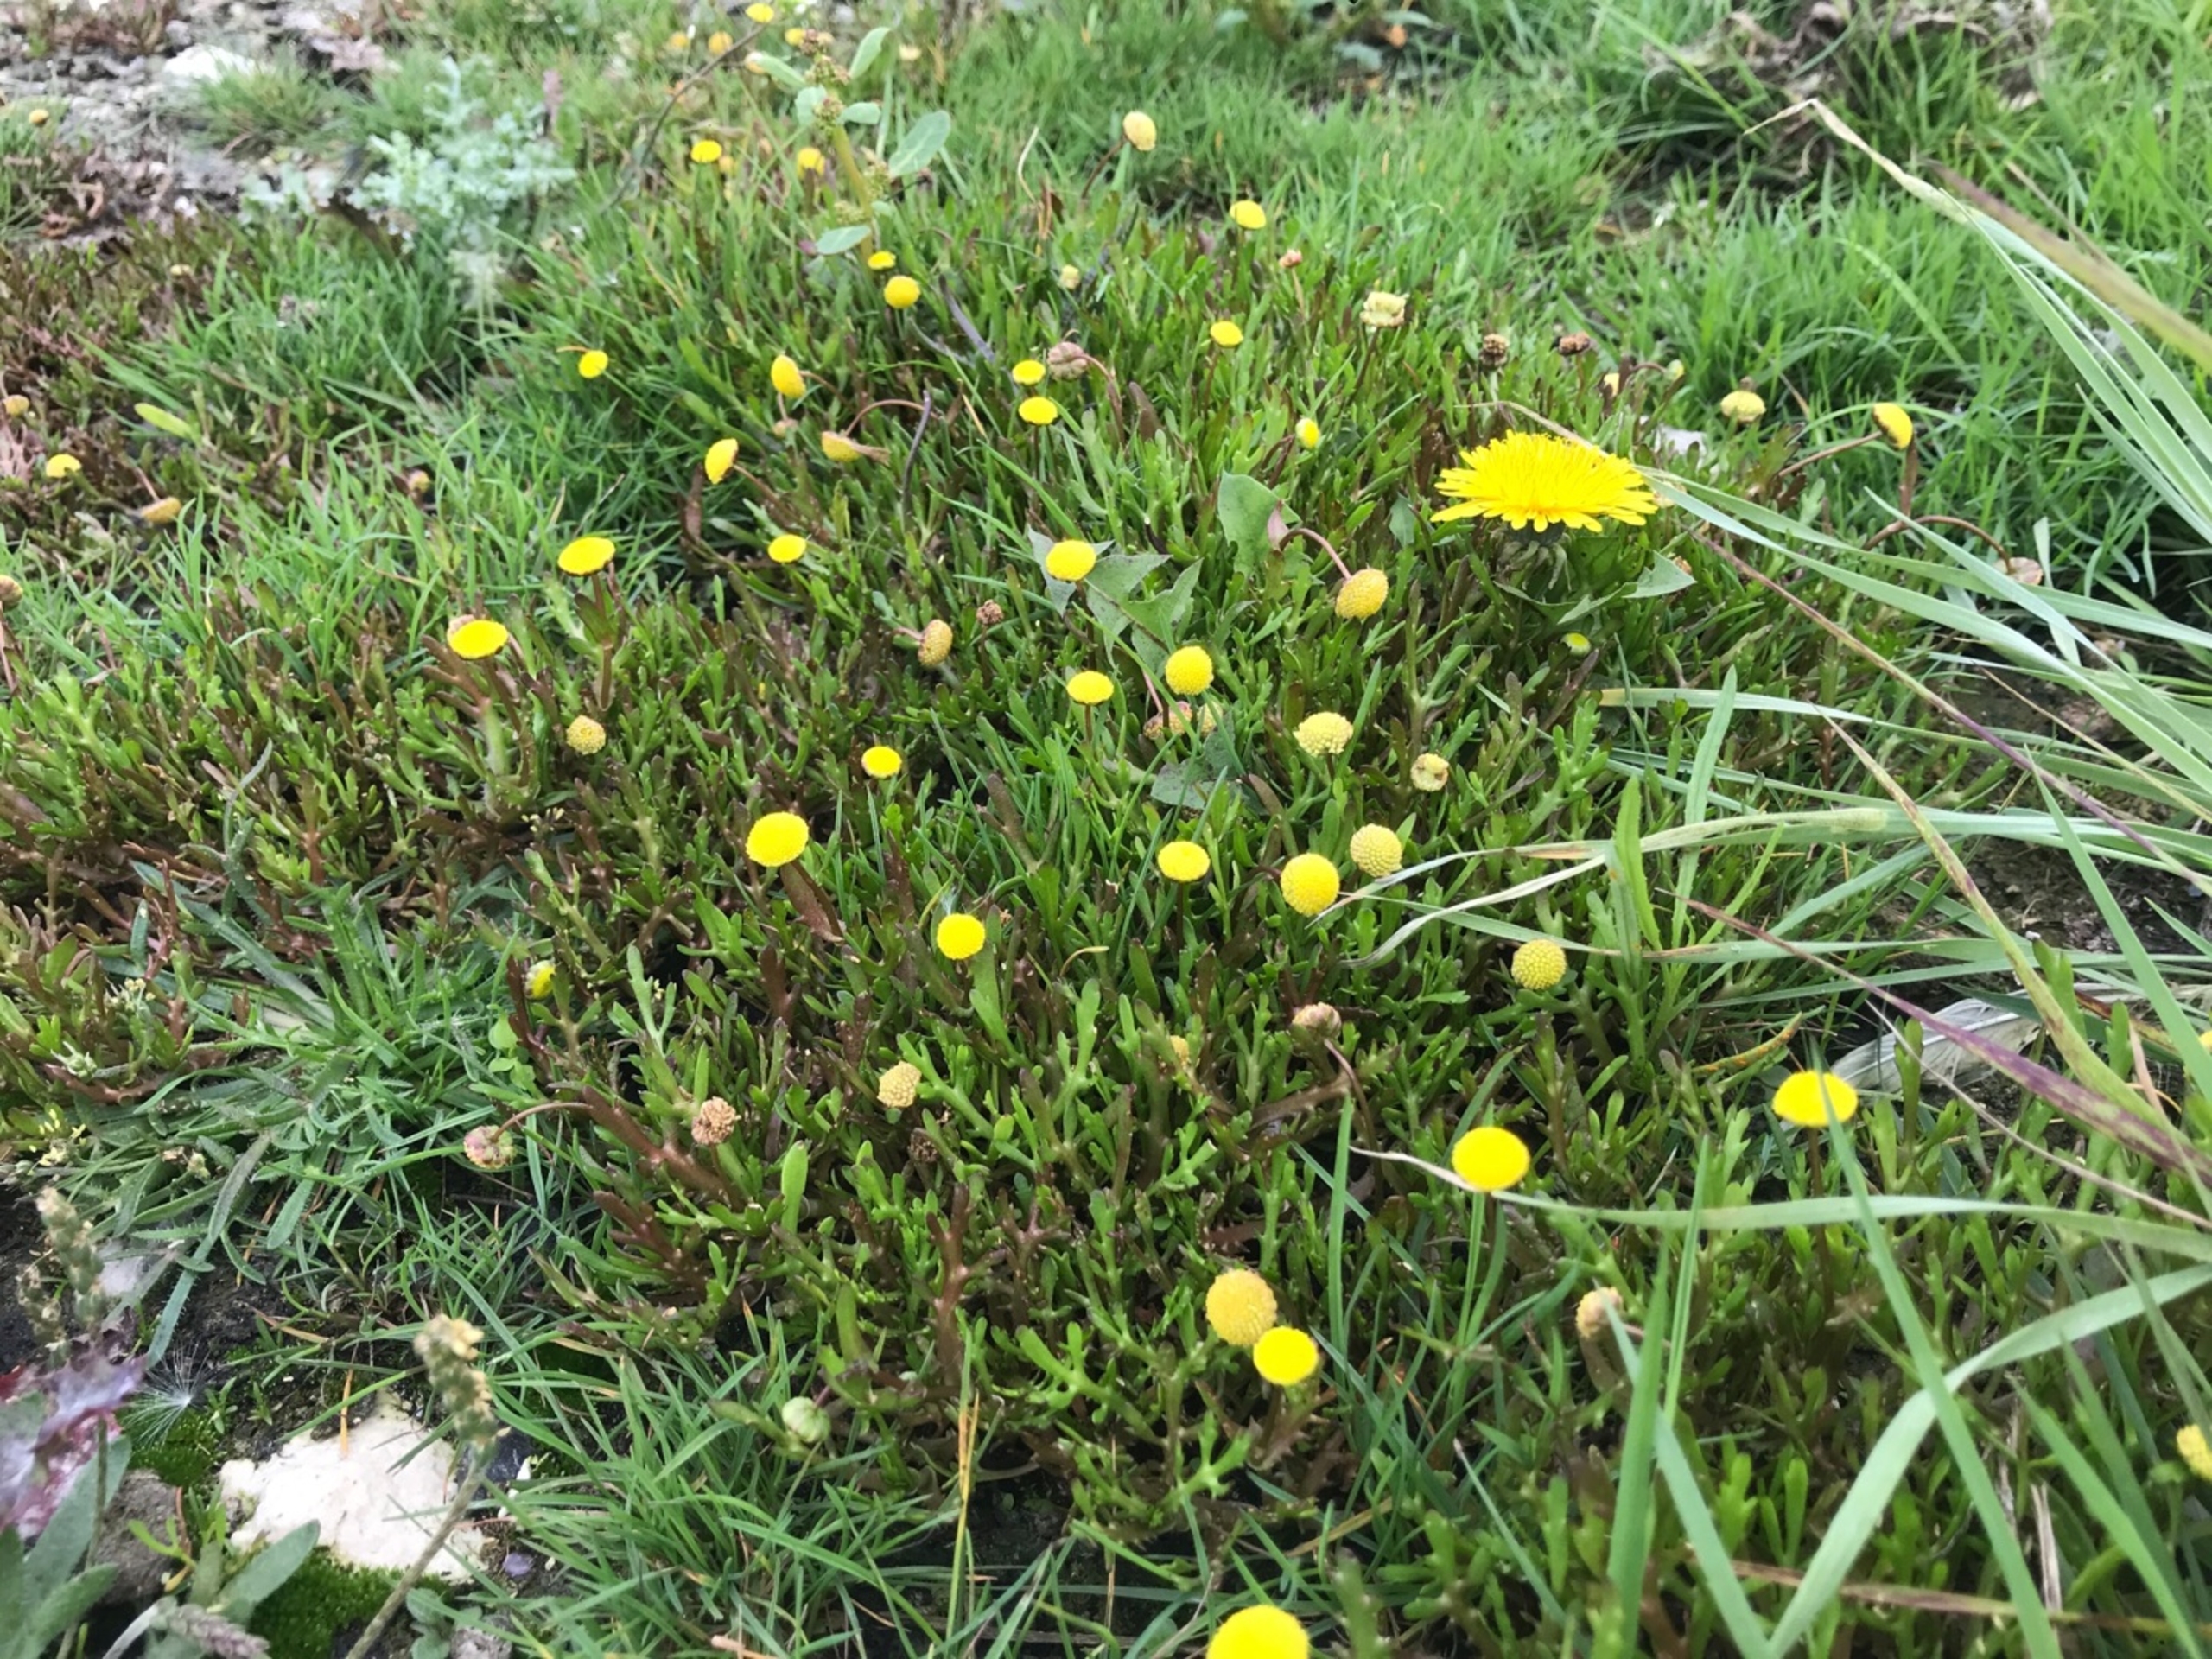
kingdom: Plantae
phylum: Tracheophyta
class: Magnoliopsida
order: Asterales
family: Asteraceae
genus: Cotula
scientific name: Cotula coronopifolia
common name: Firkløft
